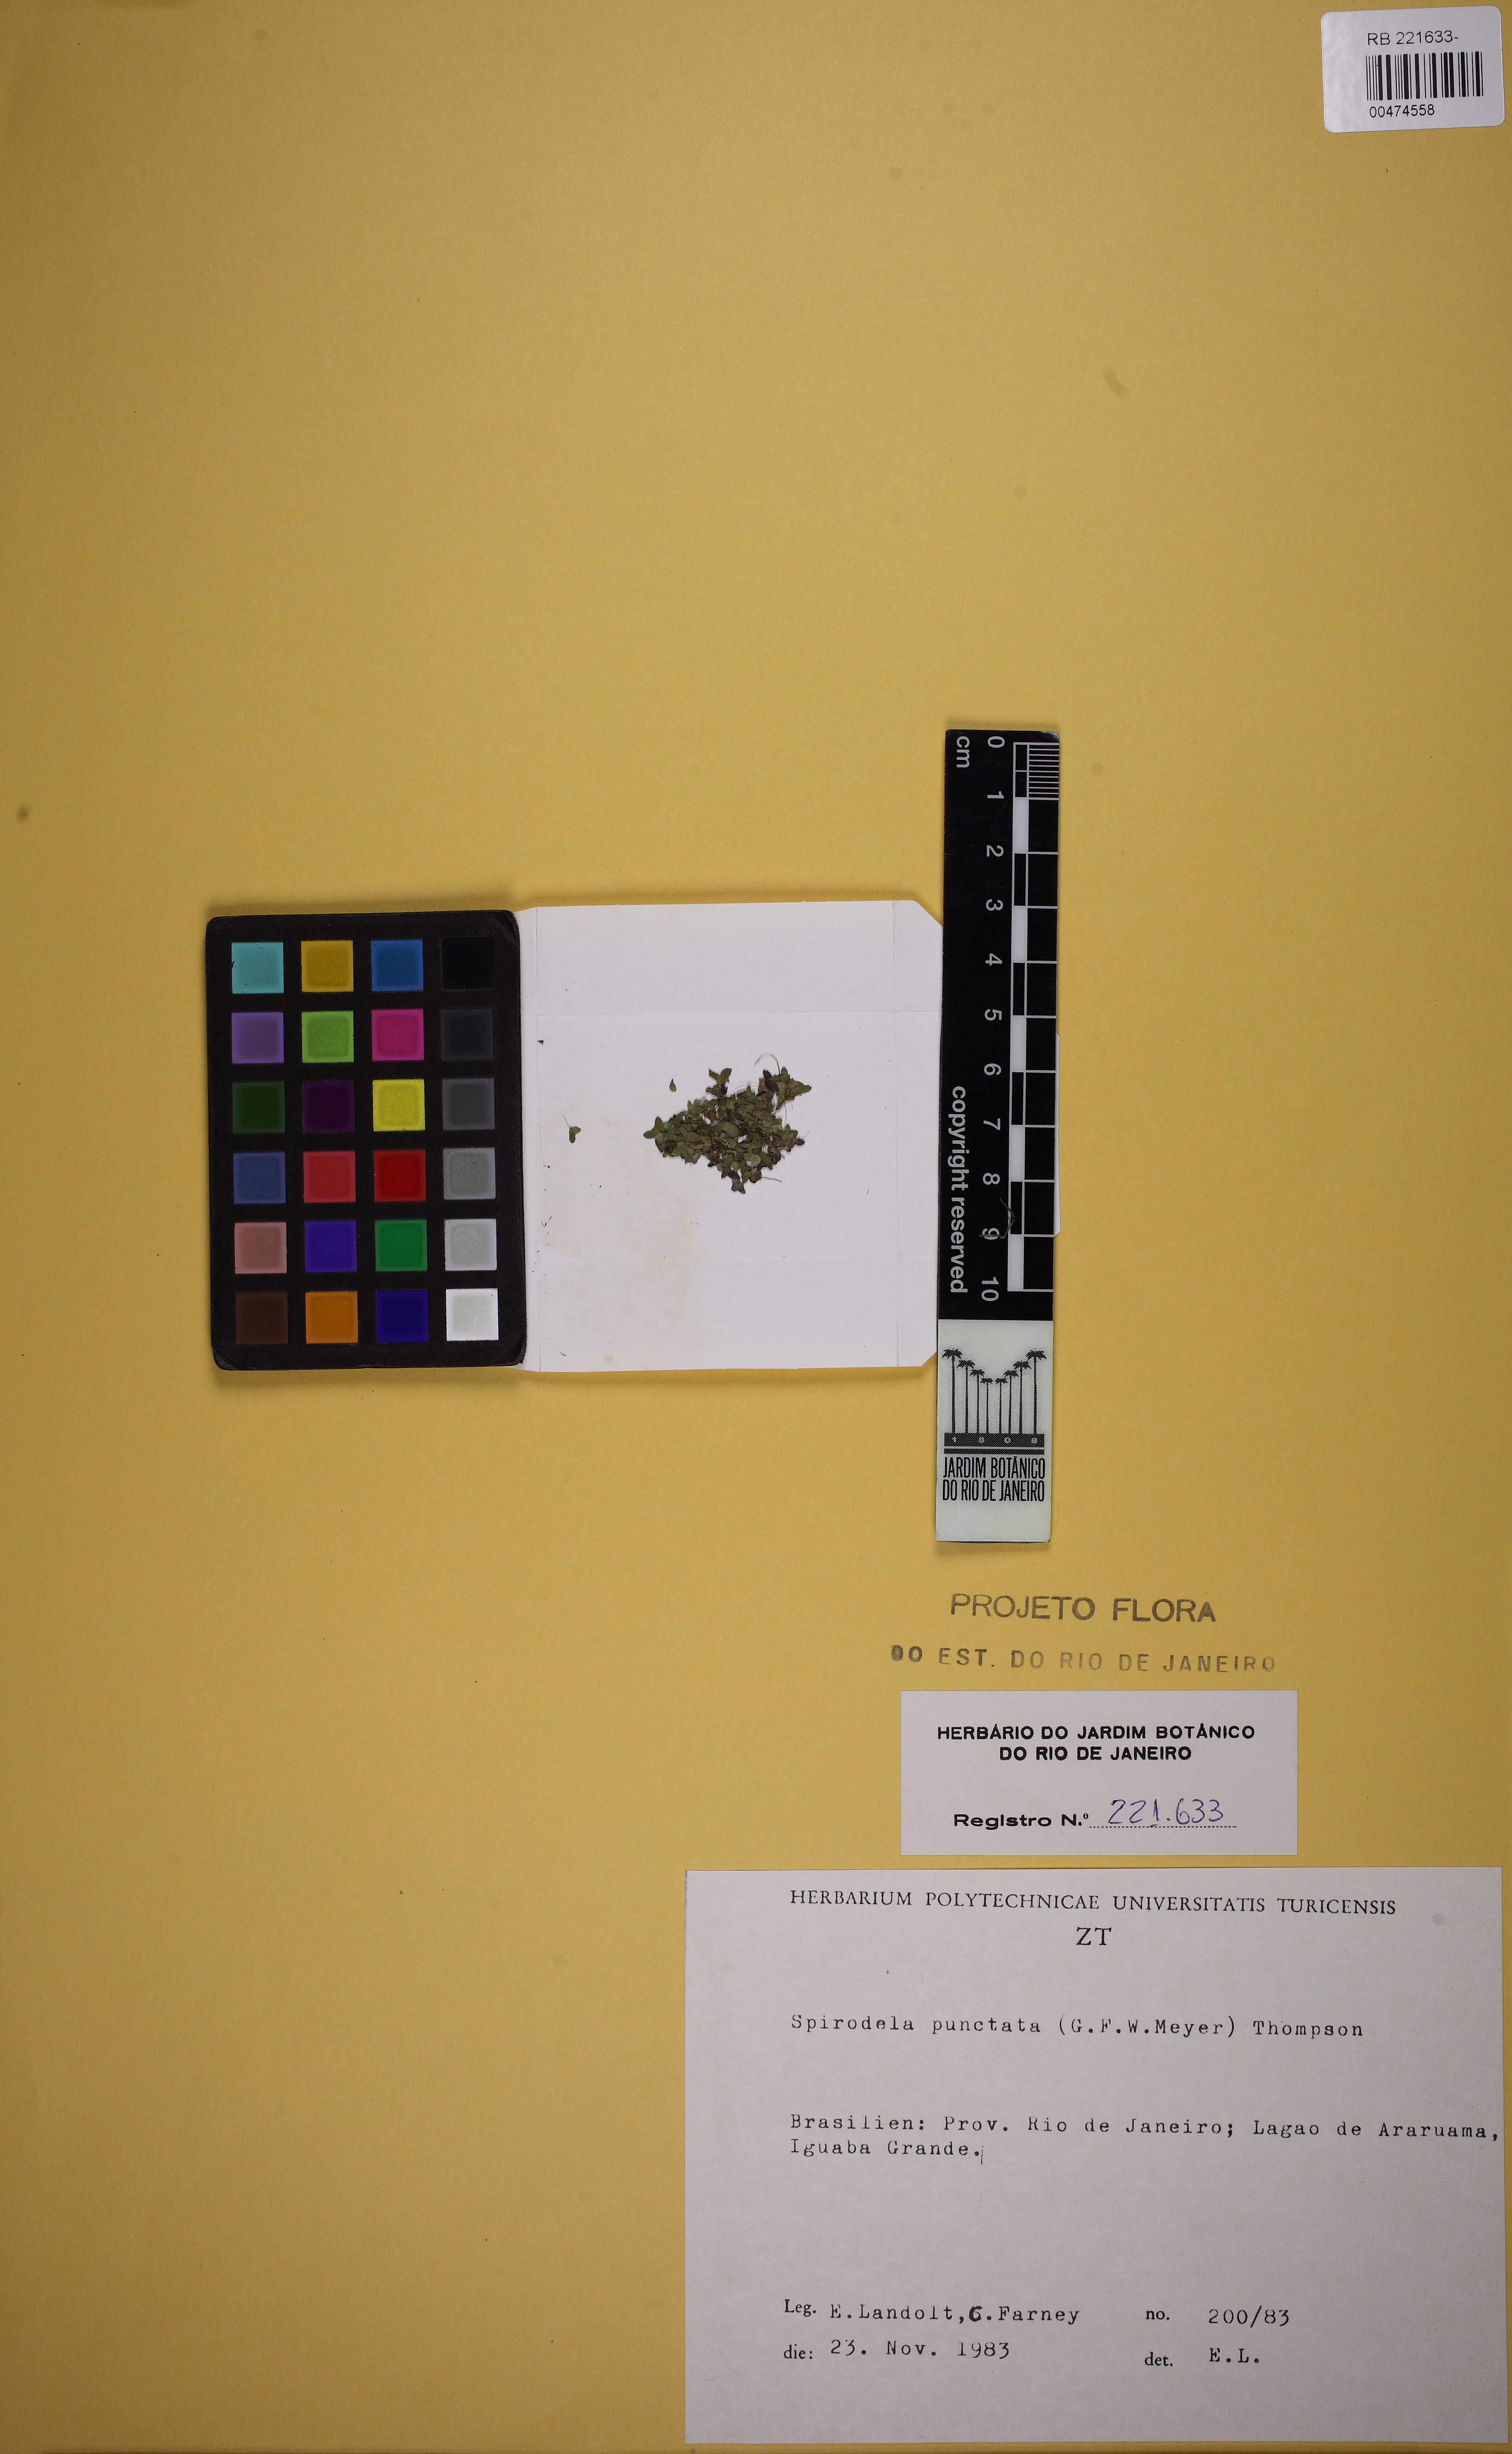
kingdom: Plantae
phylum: Tracheophyta
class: Liliopsida
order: Alismatales
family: Araceae
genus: Spirodela
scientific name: Spirodela punctata
